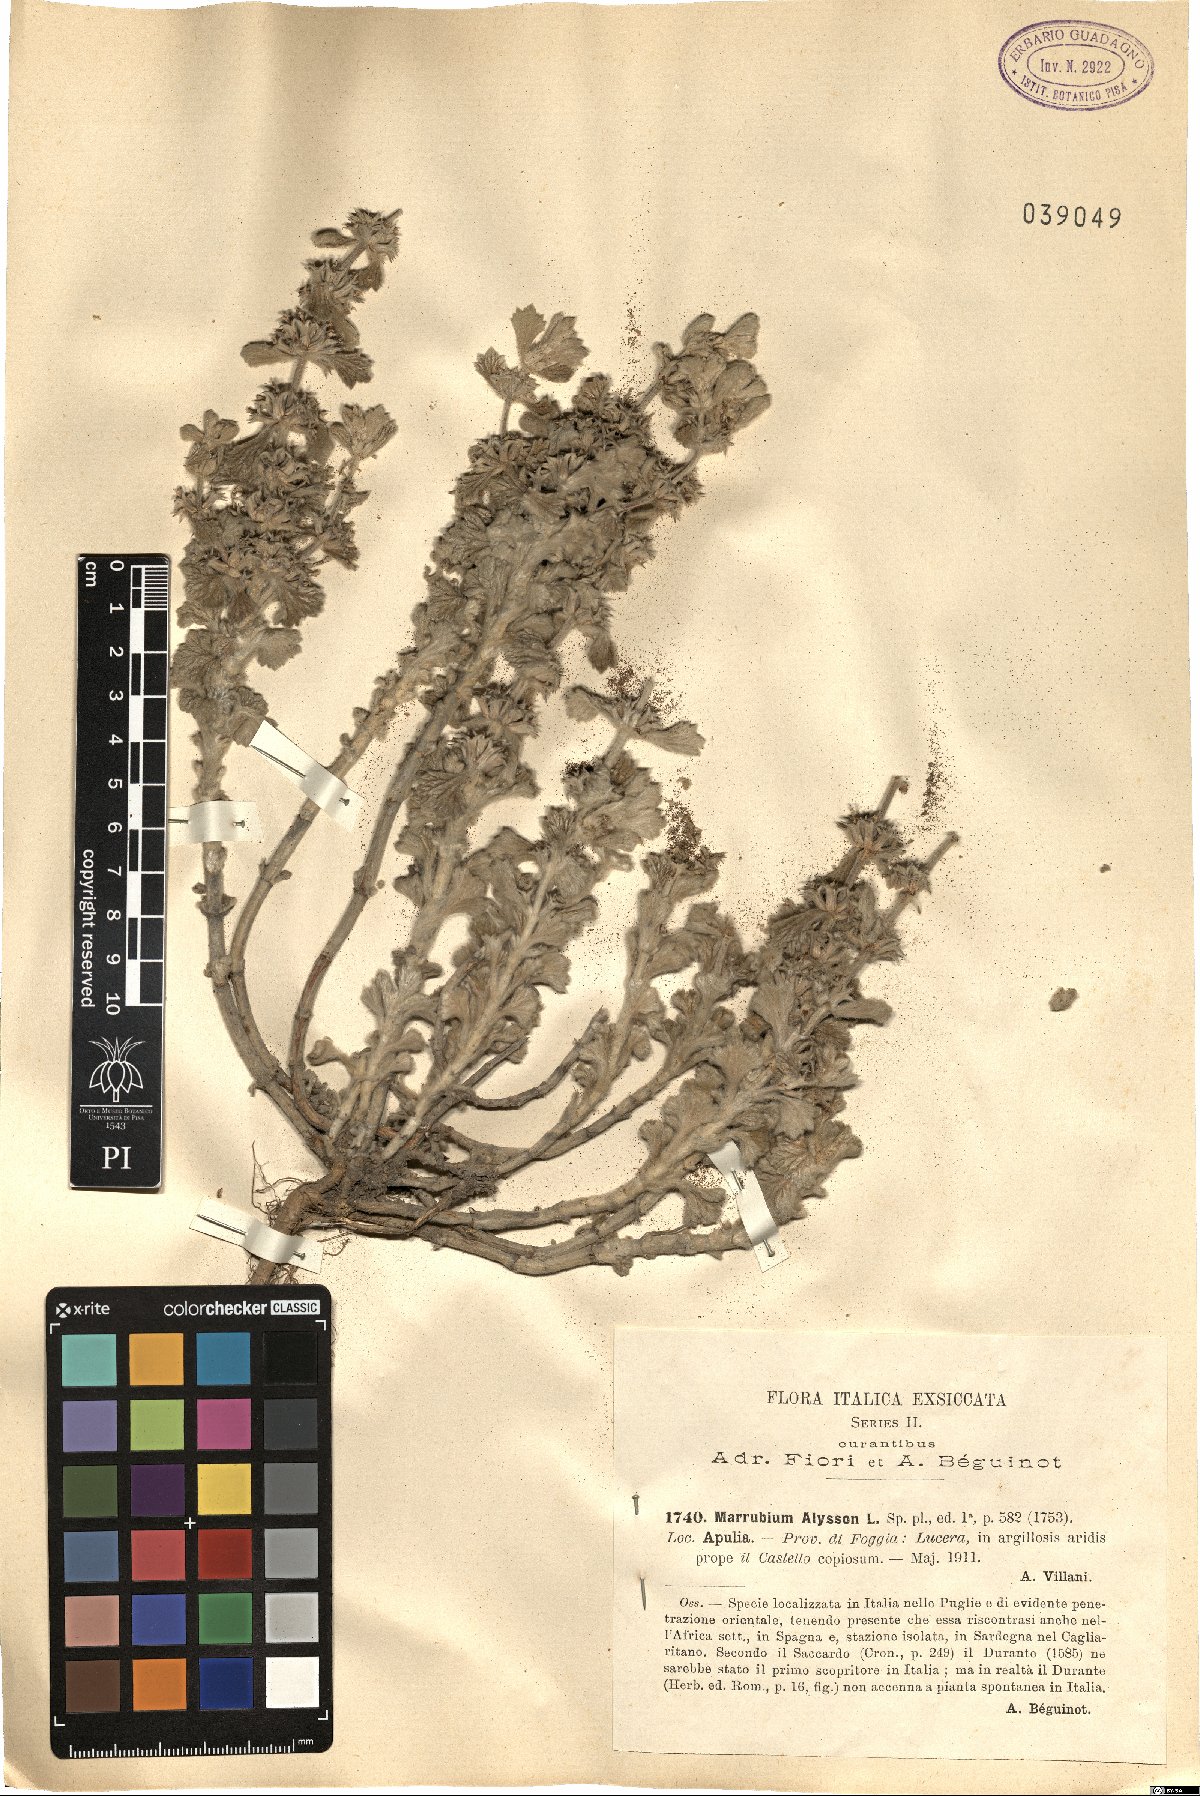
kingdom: Plantae
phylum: Tracheophyta
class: Magnoliopsida
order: Lamiales
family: Lamiaceae
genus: Marrubium
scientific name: Marrubium alysson
